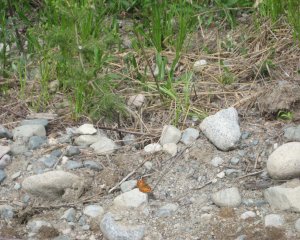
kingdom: Animalia
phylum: Arthropoda
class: Insecta
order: Lepidoptera
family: Nymphalidae
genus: Vanessa
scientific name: Vanessa virginiensis
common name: American Lady
